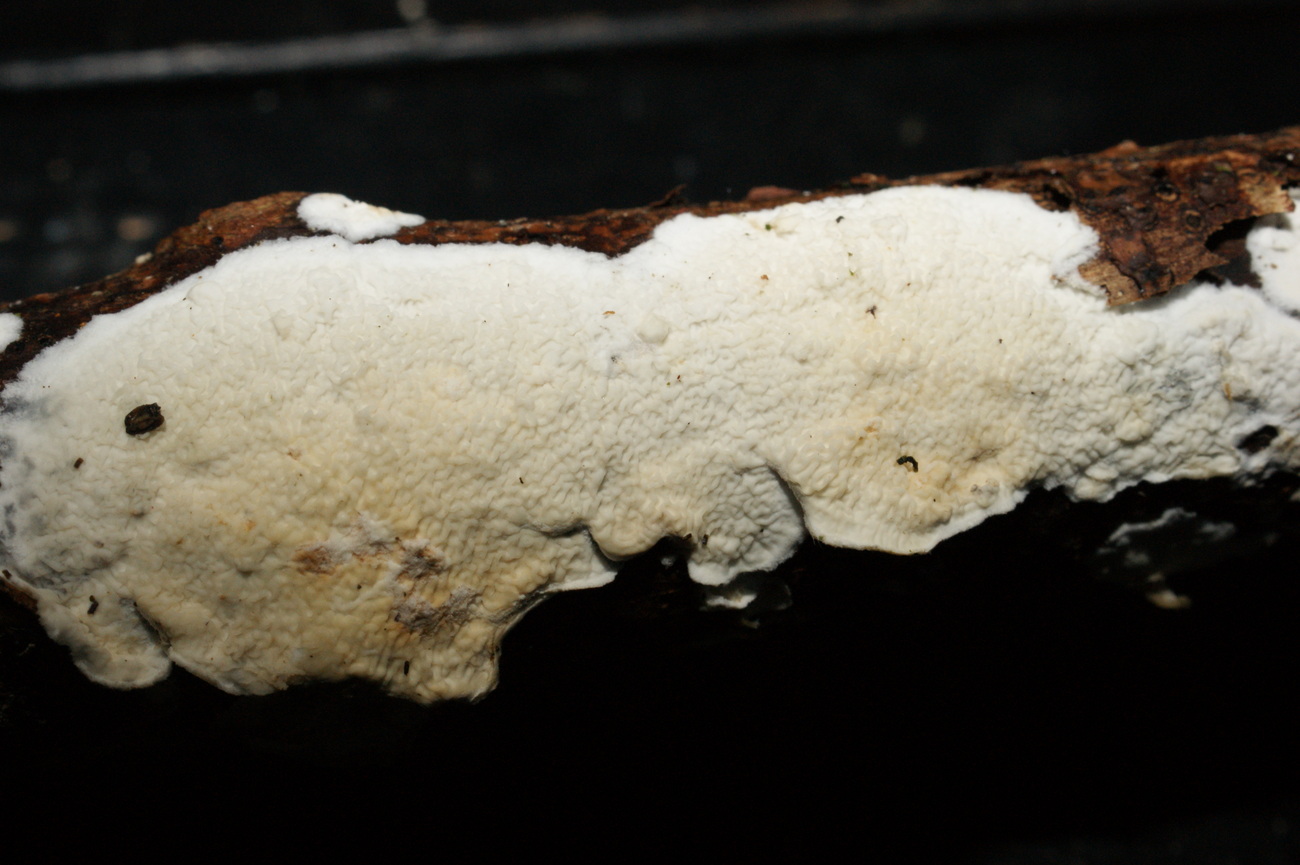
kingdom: Fungi
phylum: Basidiomycota
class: Agaricomycetes
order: Polyporales
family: Irpicaceae
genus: Byssomerulius
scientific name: Byssomerulius corium
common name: læder-åresvamp
